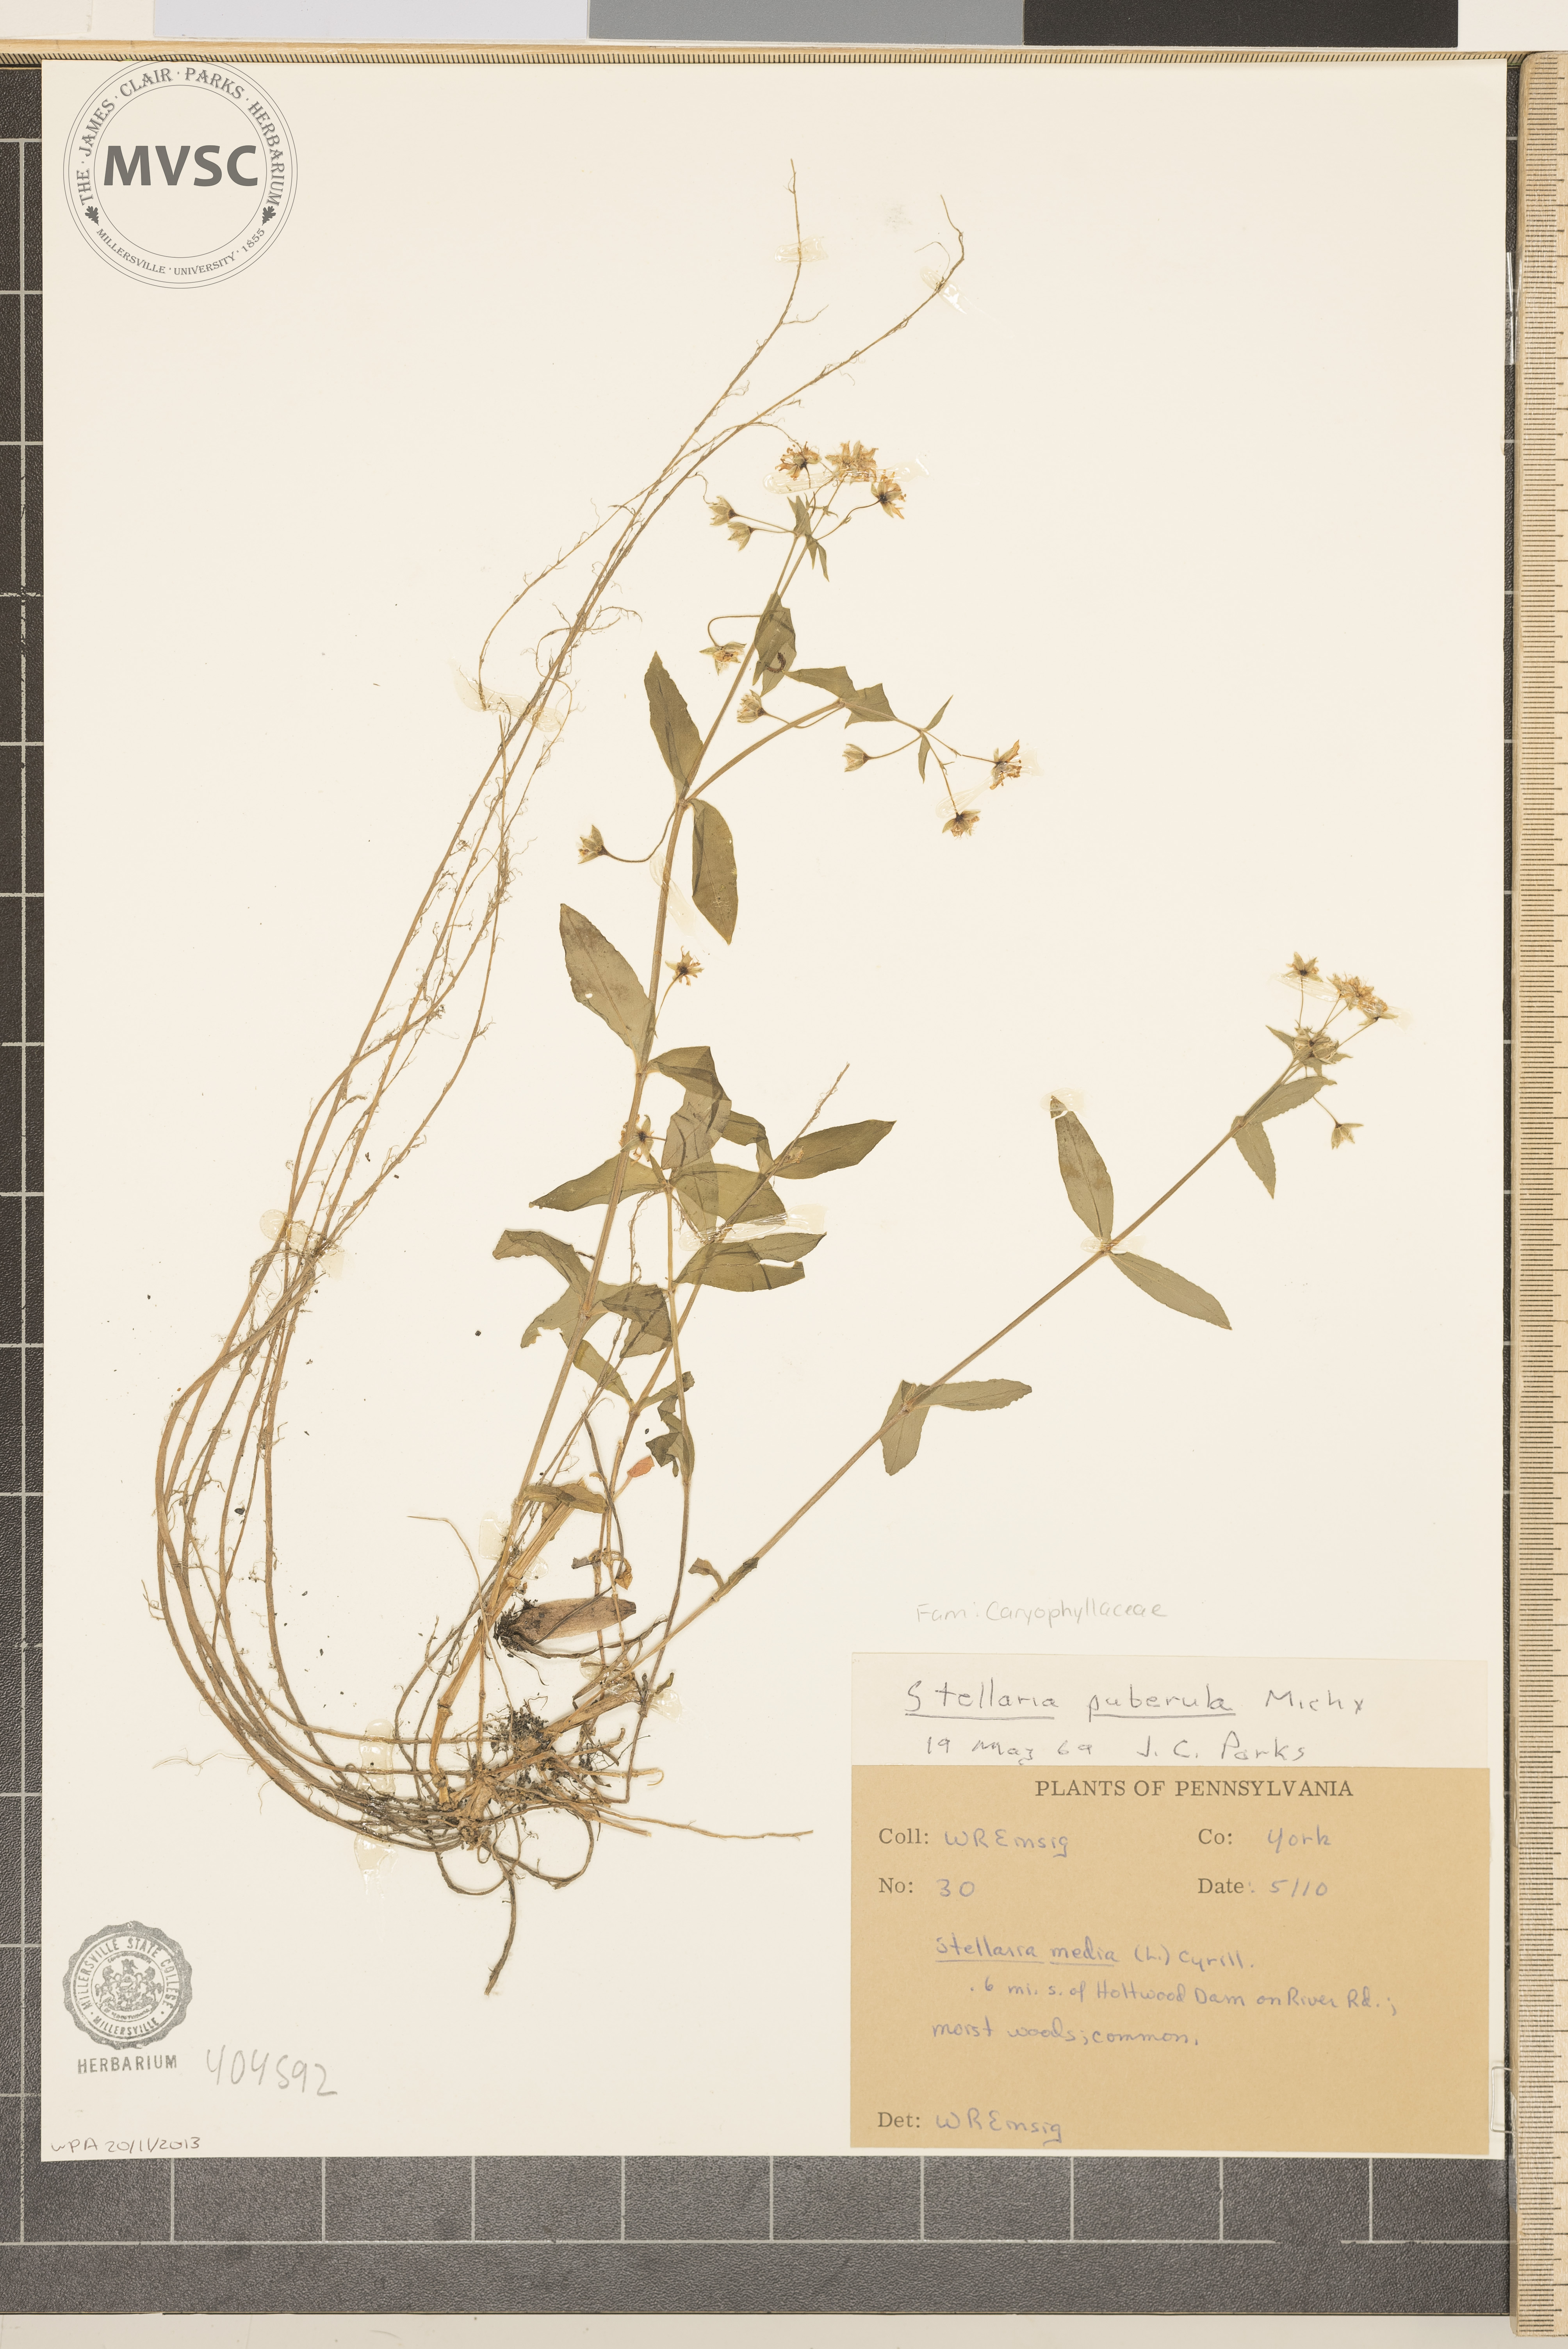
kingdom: Plantae
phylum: Tracheophyta
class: Magnoliopsida
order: Caryophyllales
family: Caryophyllaceae
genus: Stellaria
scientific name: Stellaria pubera
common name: Star chickweed
